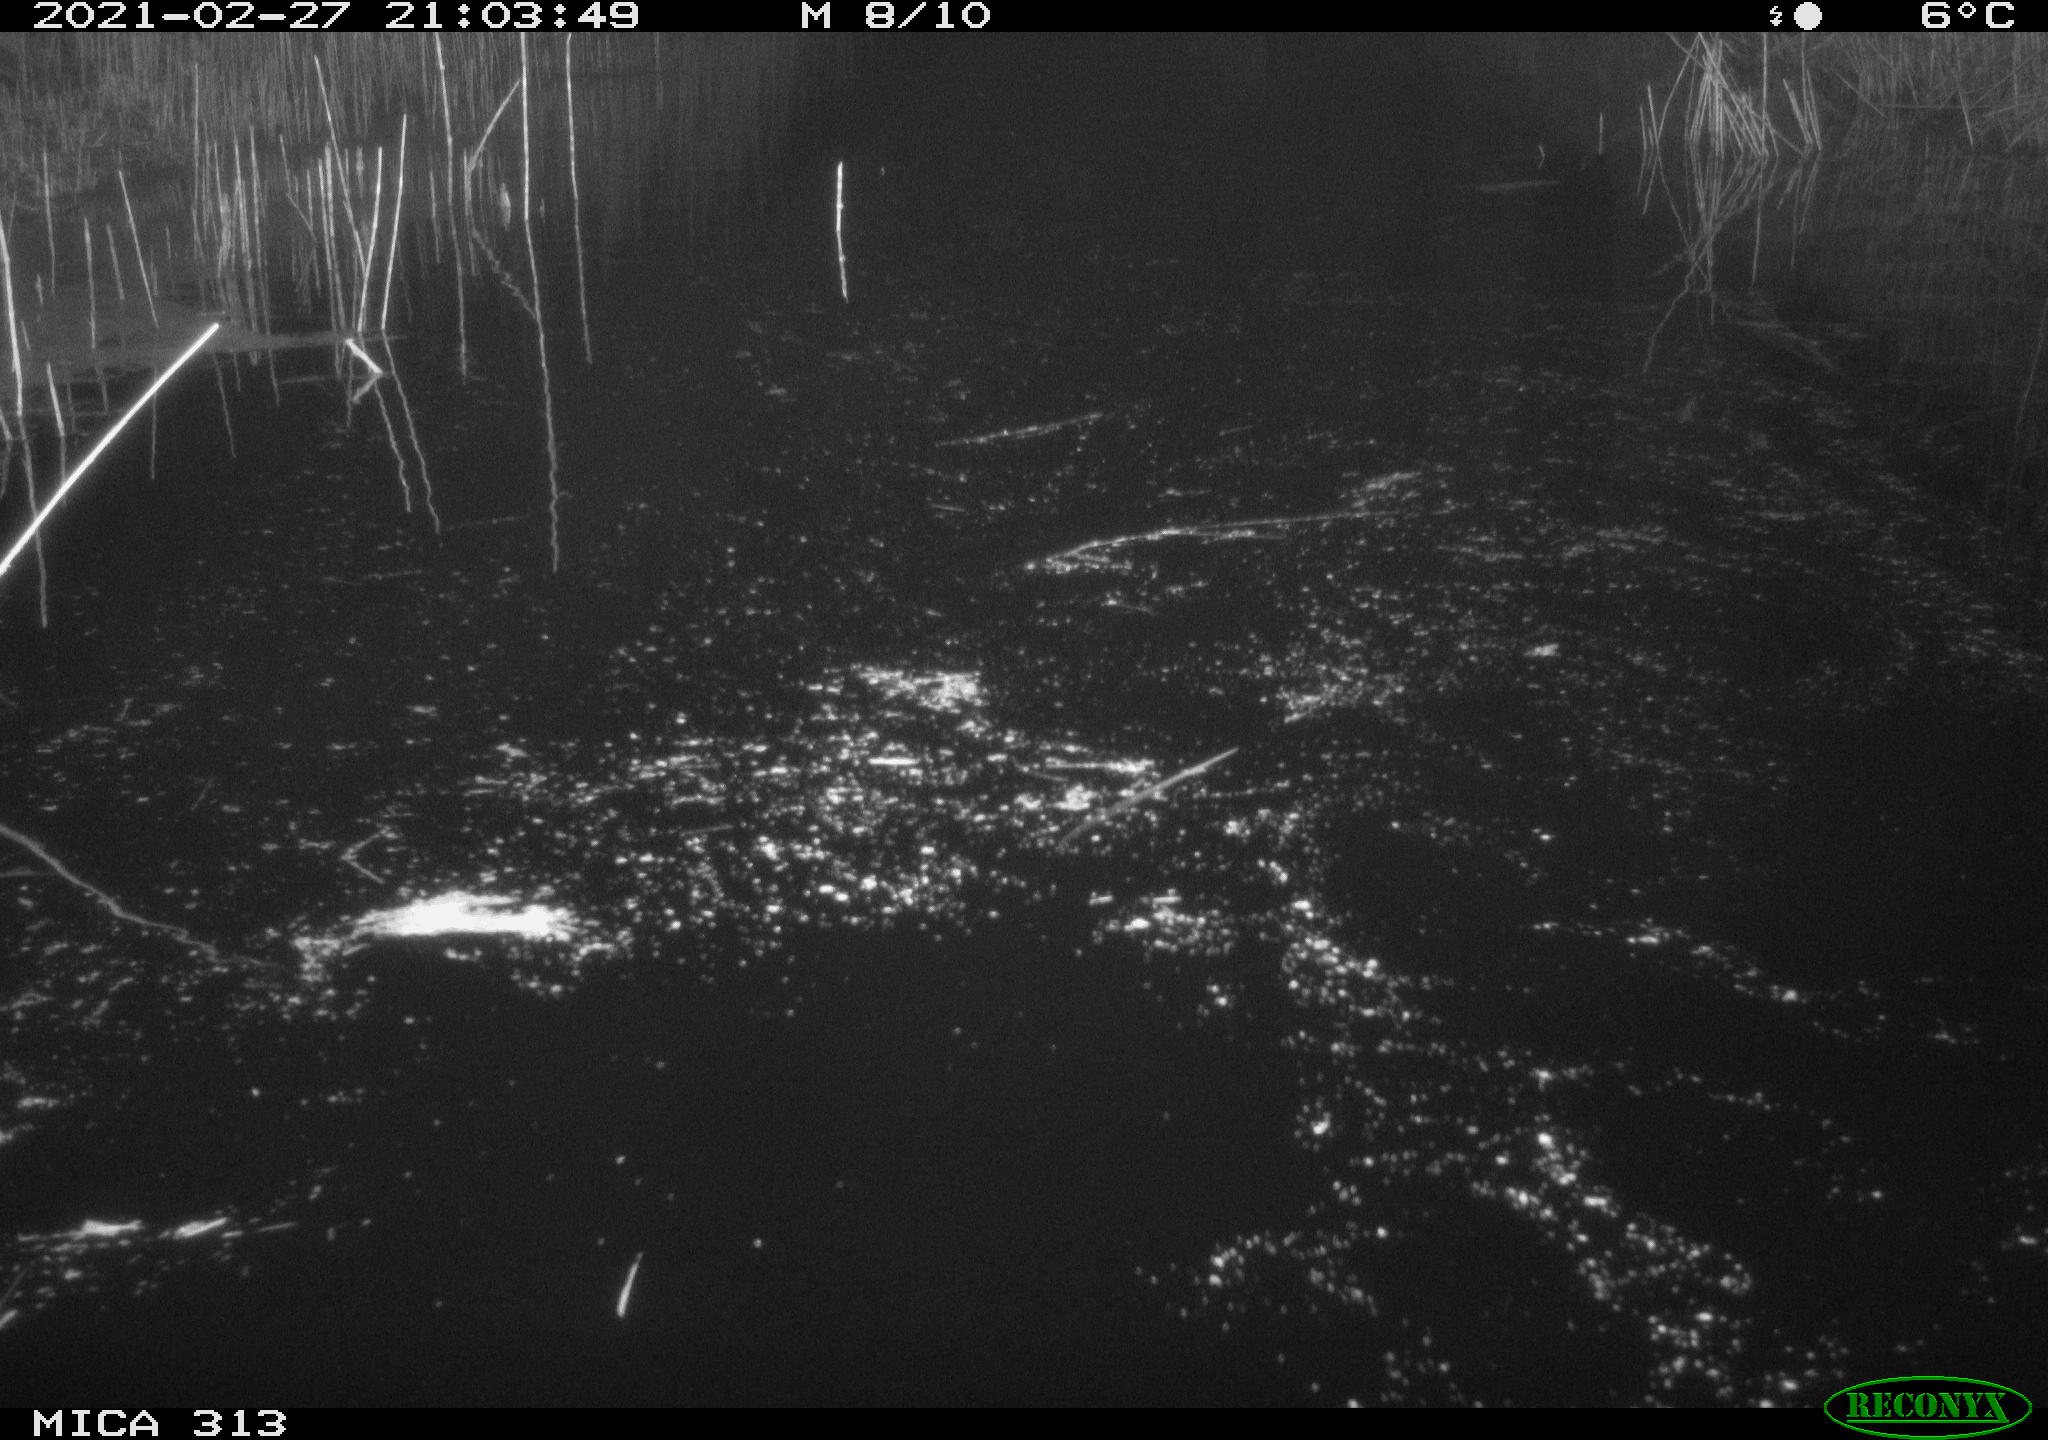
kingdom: Animalia
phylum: Chordata
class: Aves
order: Gruiformes
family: Rallidae
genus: Fulica
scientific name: Fulica atra
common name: Eurasian coot
